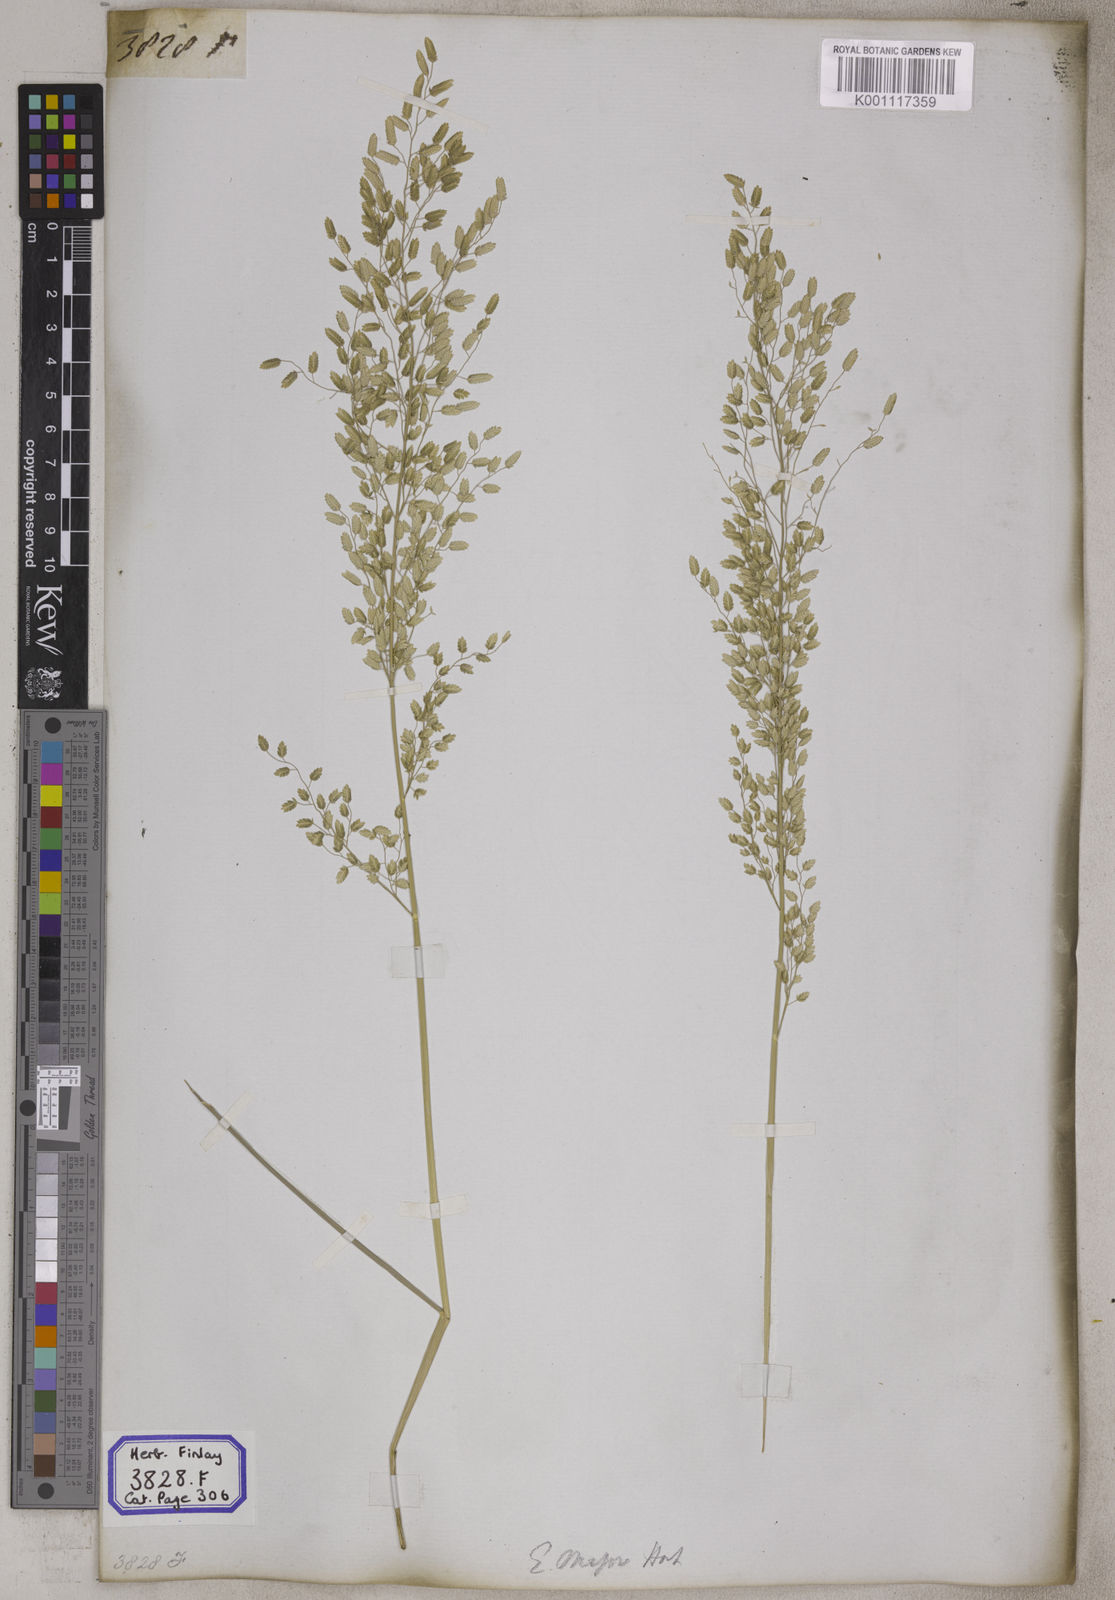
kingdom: Plantae
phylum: Tracheophyta
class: Liliopsida
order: Poales
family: Poaceae
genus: Eragrostis
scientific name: Eragrostis
